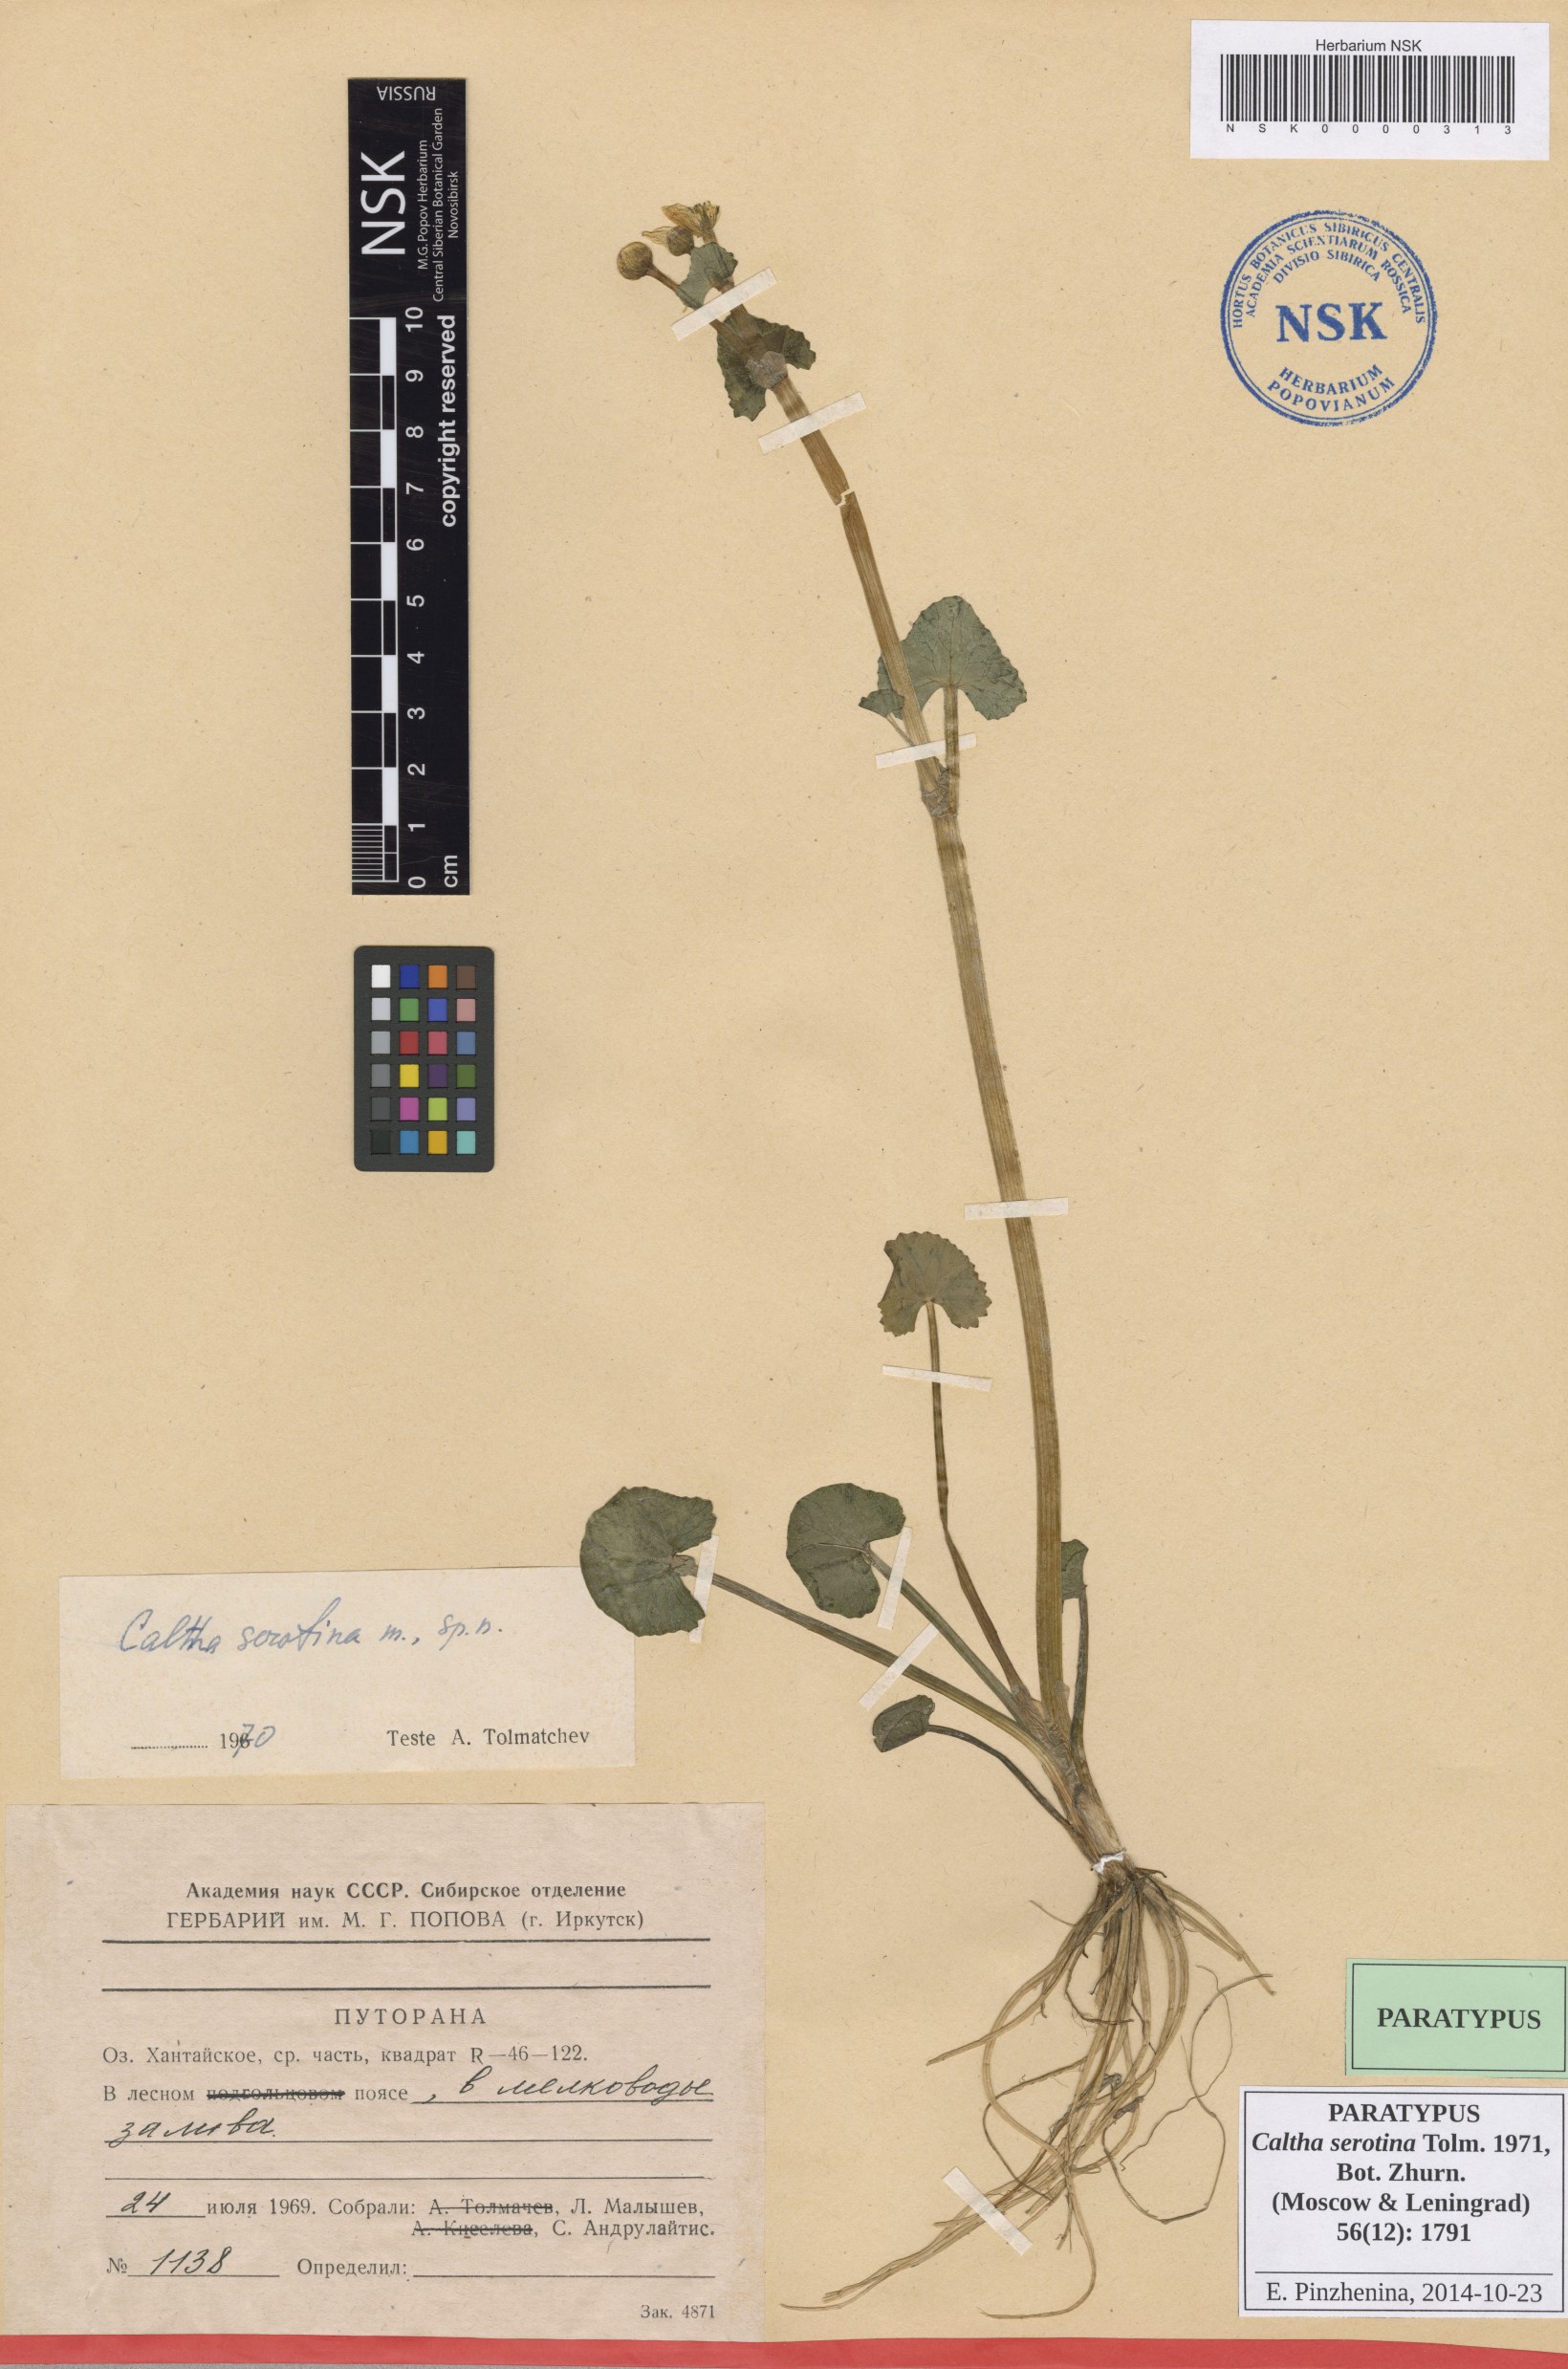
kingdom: Plantae
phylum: Tracheophyta
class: Magnoliopsida
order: Ranunculales
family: Ranunculaceae
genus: Caltha
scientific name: Caltha palustris
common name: Marsh marigold
